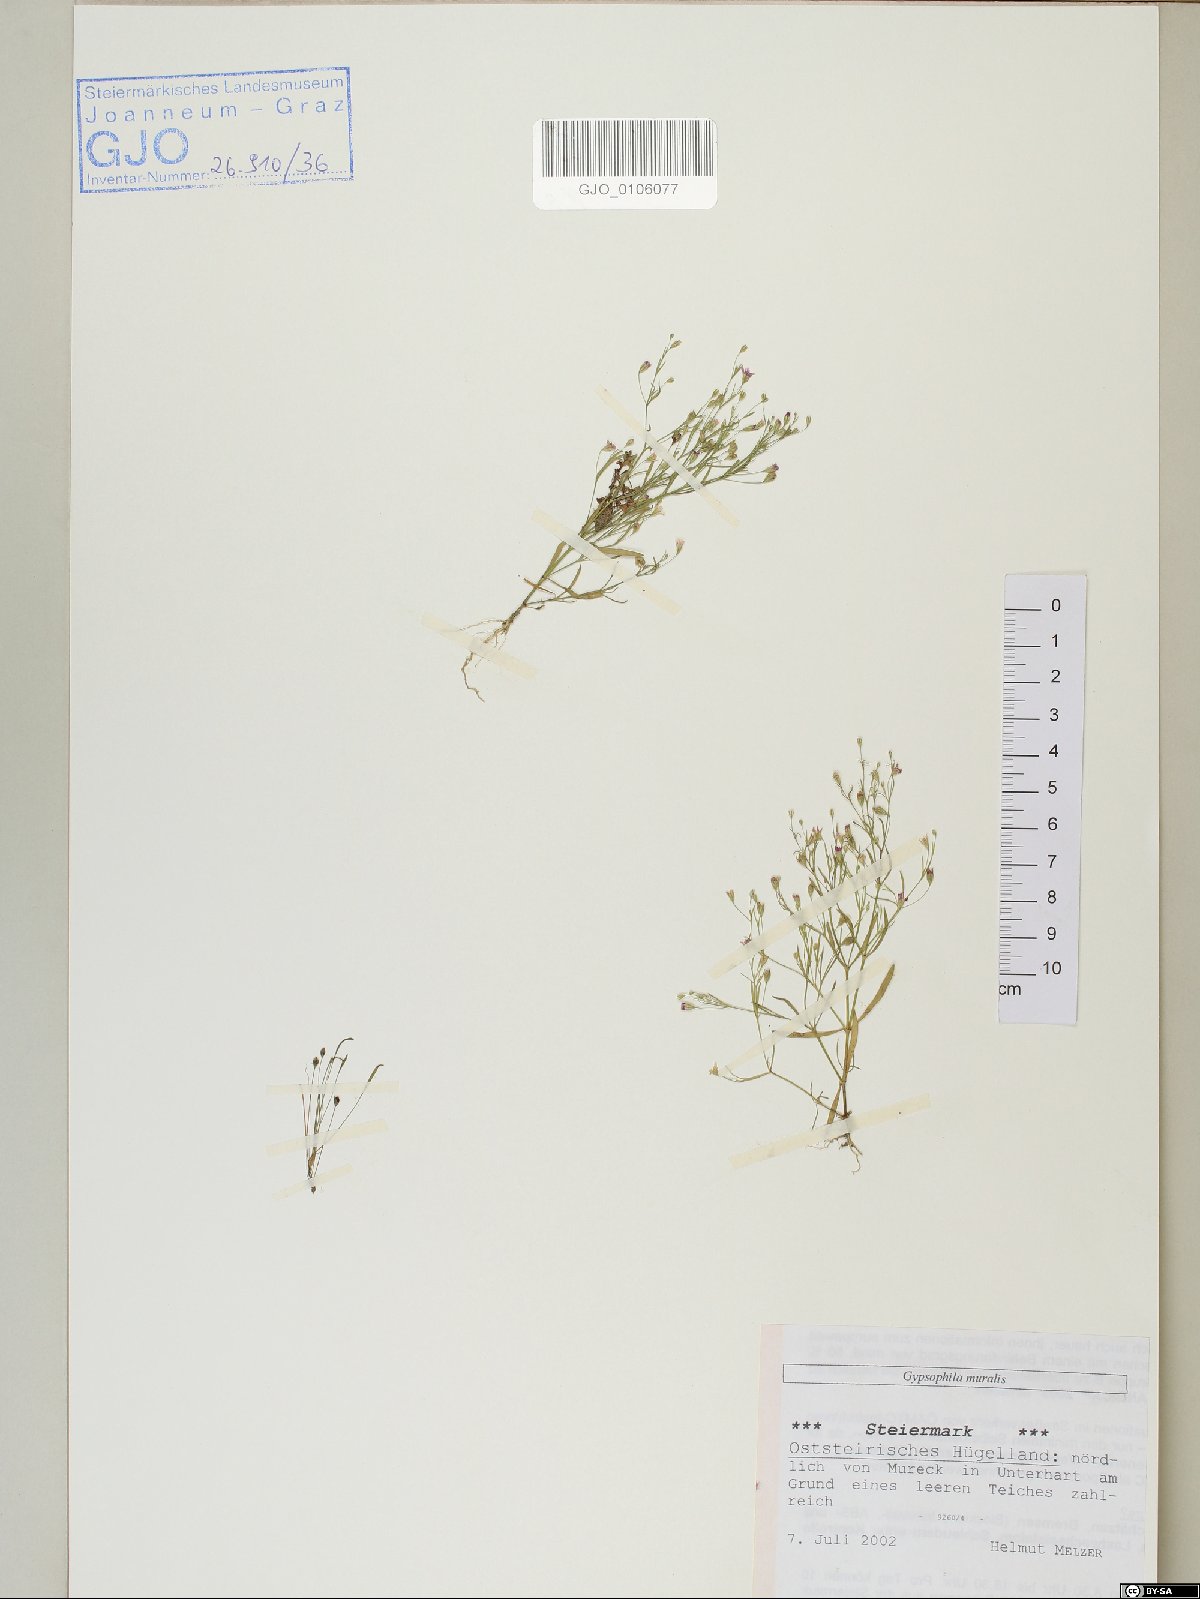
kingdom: Plantae
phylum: Tracheophyta
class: Magnoliopsida
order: Caryophyllales
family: Caryophyllaceae
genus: Psammophiliella
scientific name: Psammophiliella muralis
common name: Cushion baby's-breath
